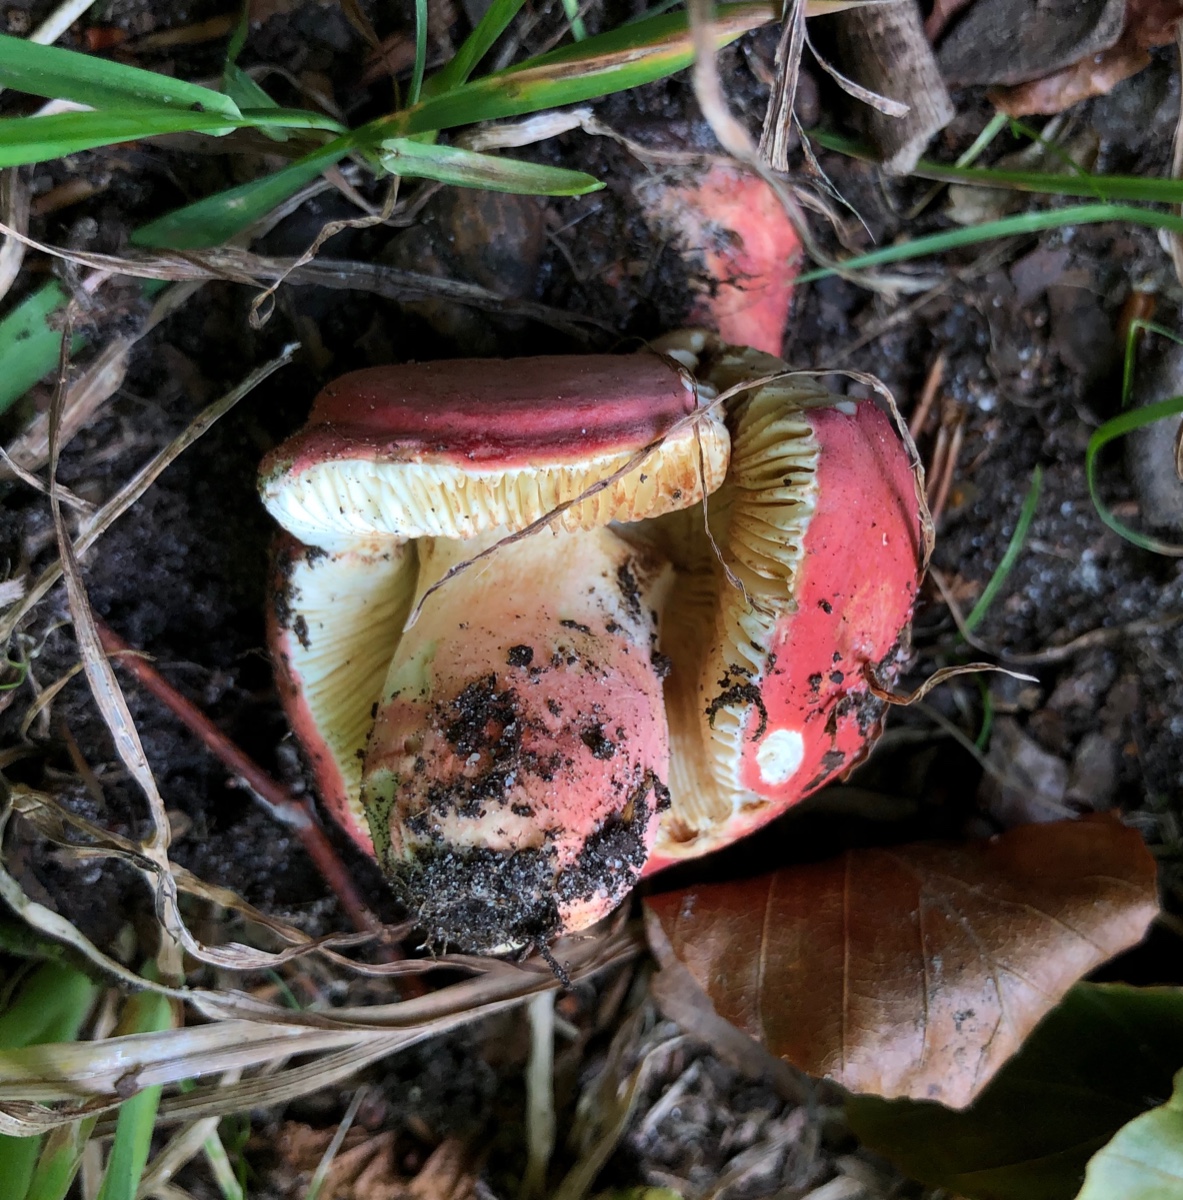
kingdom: Fungi
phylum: Basidiomycota
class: Agaricomycetes
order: Russulales
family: Russulaceae
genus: Russula
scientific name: Russula rosea
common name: fastkødet skørhat
